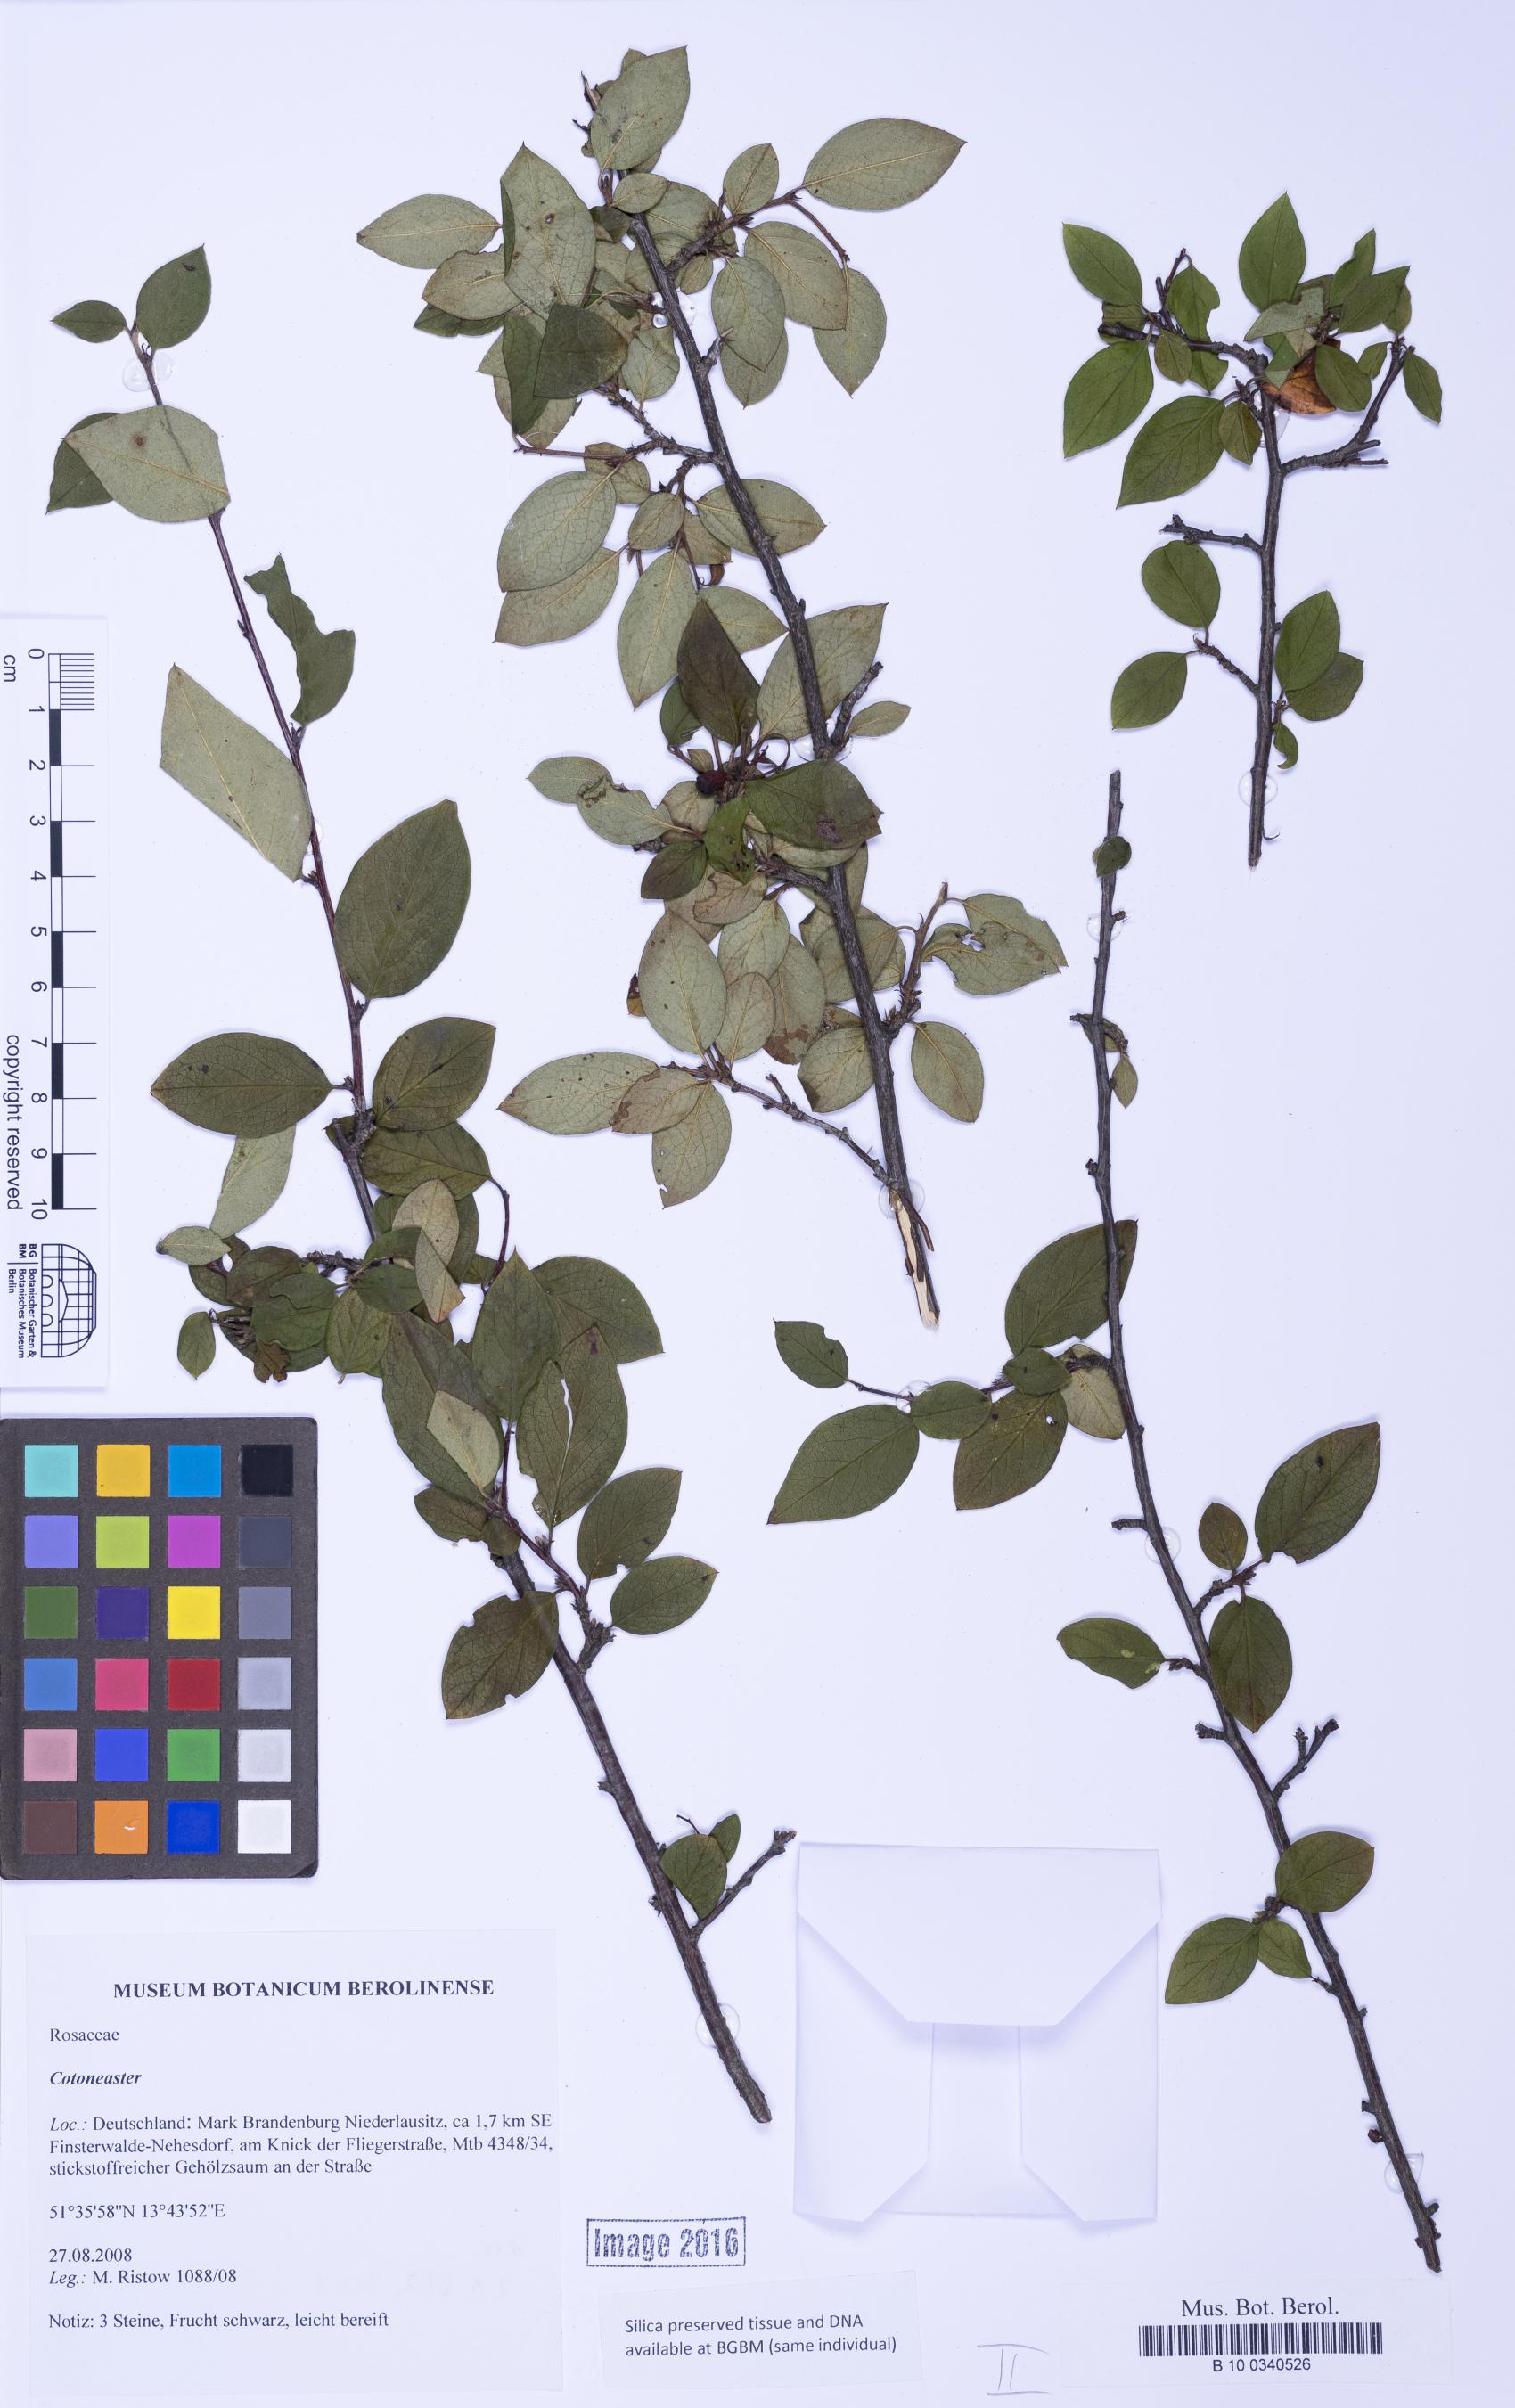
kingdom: Plantae
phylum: Tracheophyta
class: Magnoliopsida
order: Rosales
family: Rosaceae
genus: Cotoneaster
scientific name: Cotoneaster
